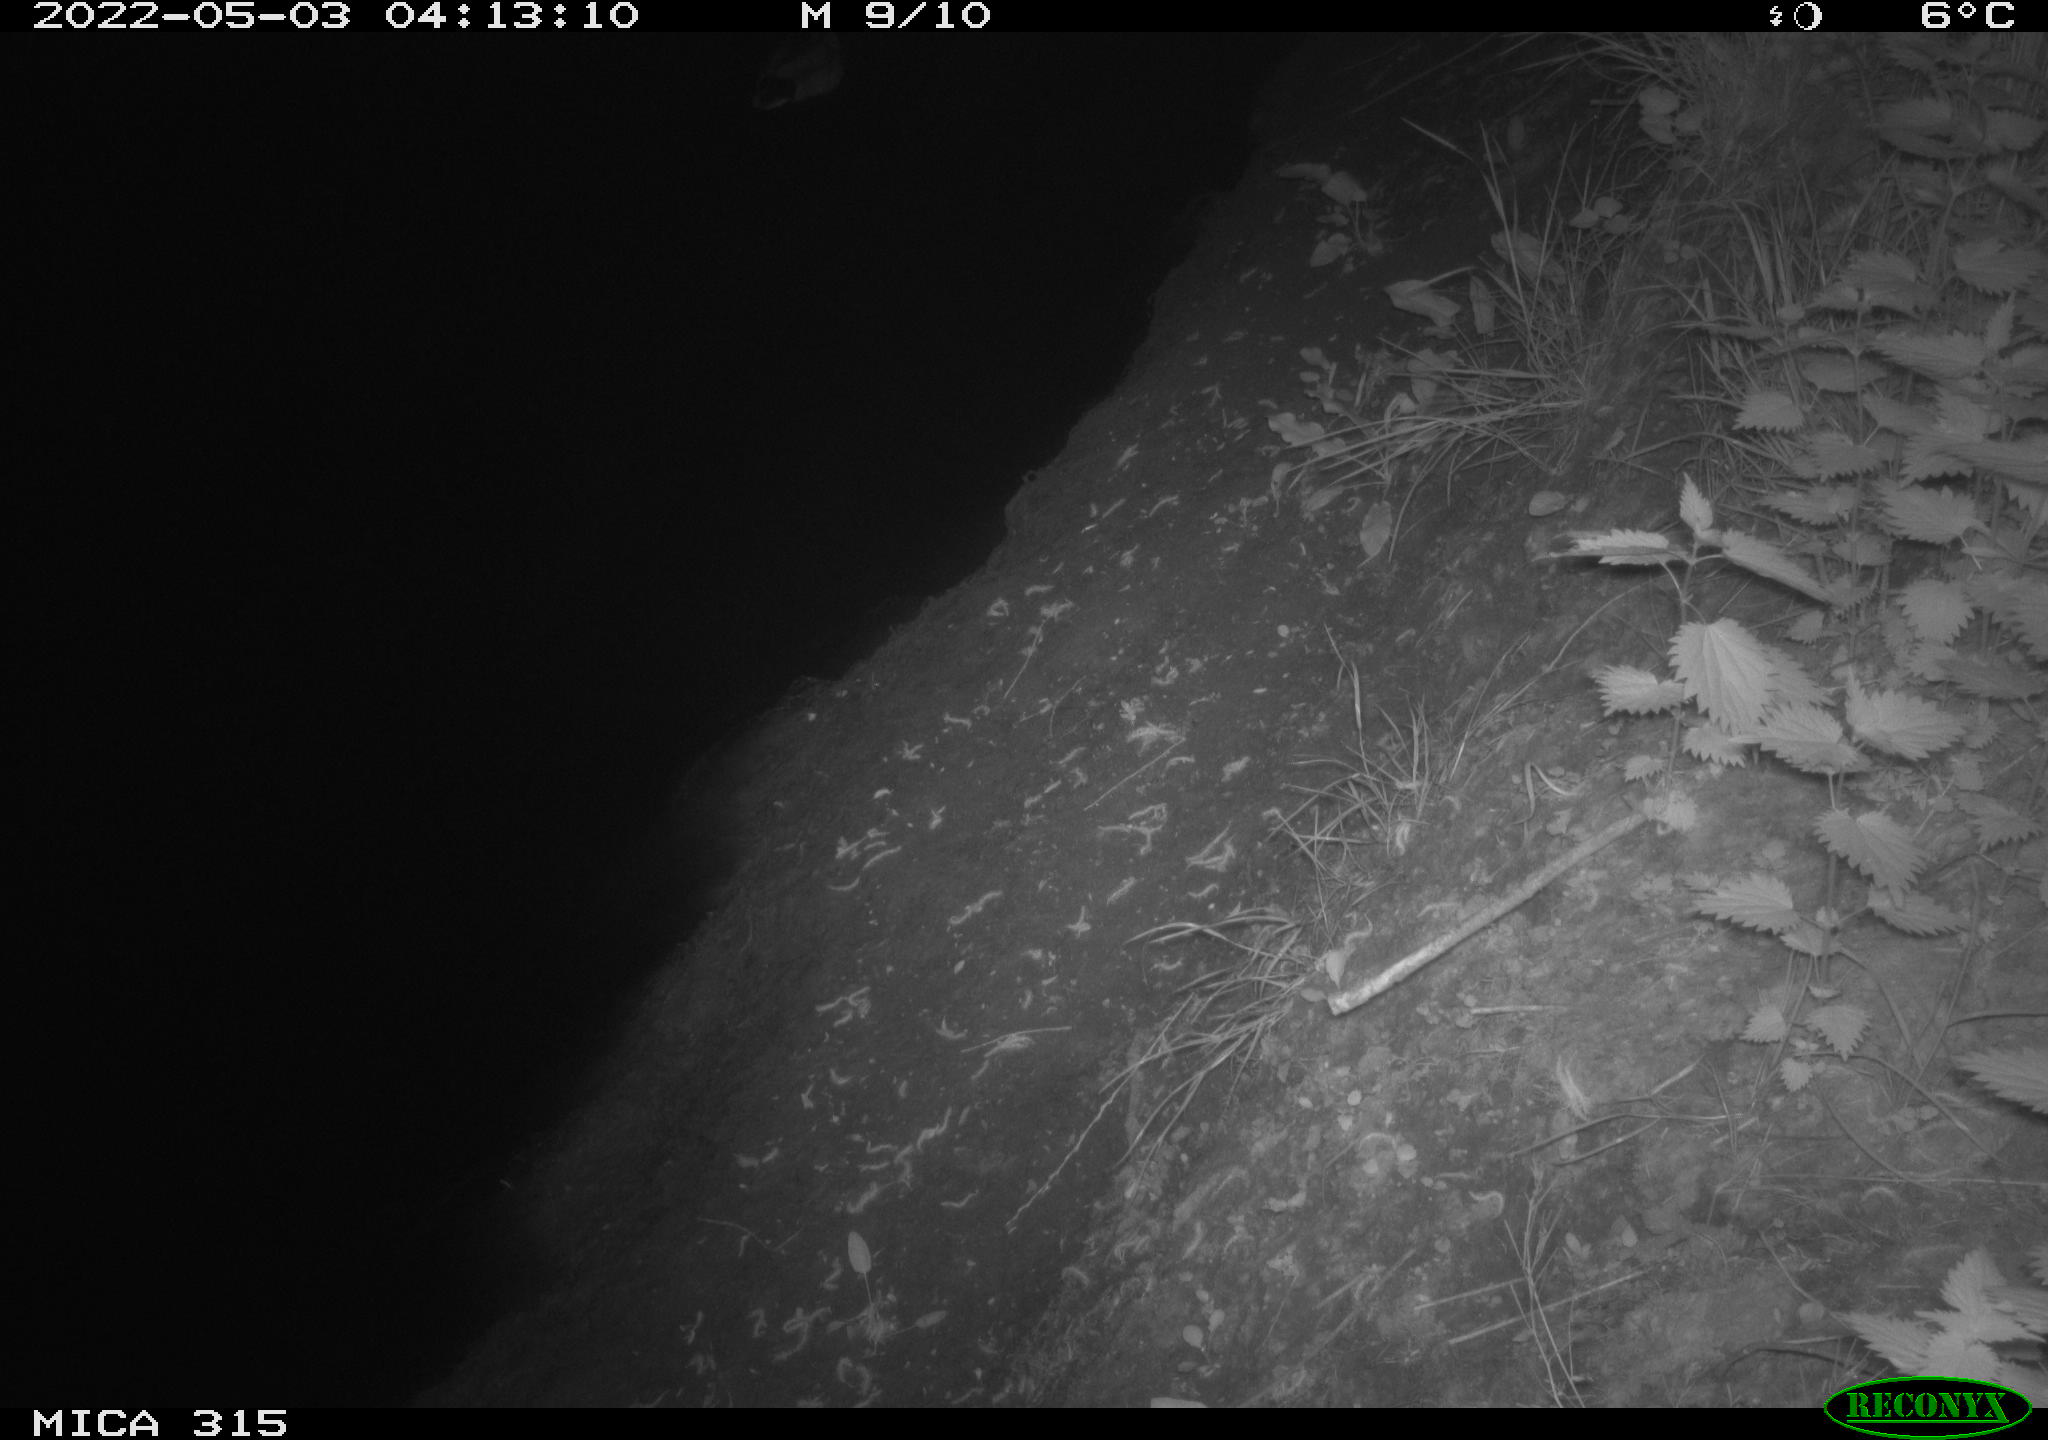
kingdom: Animalia
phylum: Chordata
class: Aves
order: Anseriformes
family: Anatidae
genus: Anas
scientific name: Anas platyrhynchos
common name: Mallard
